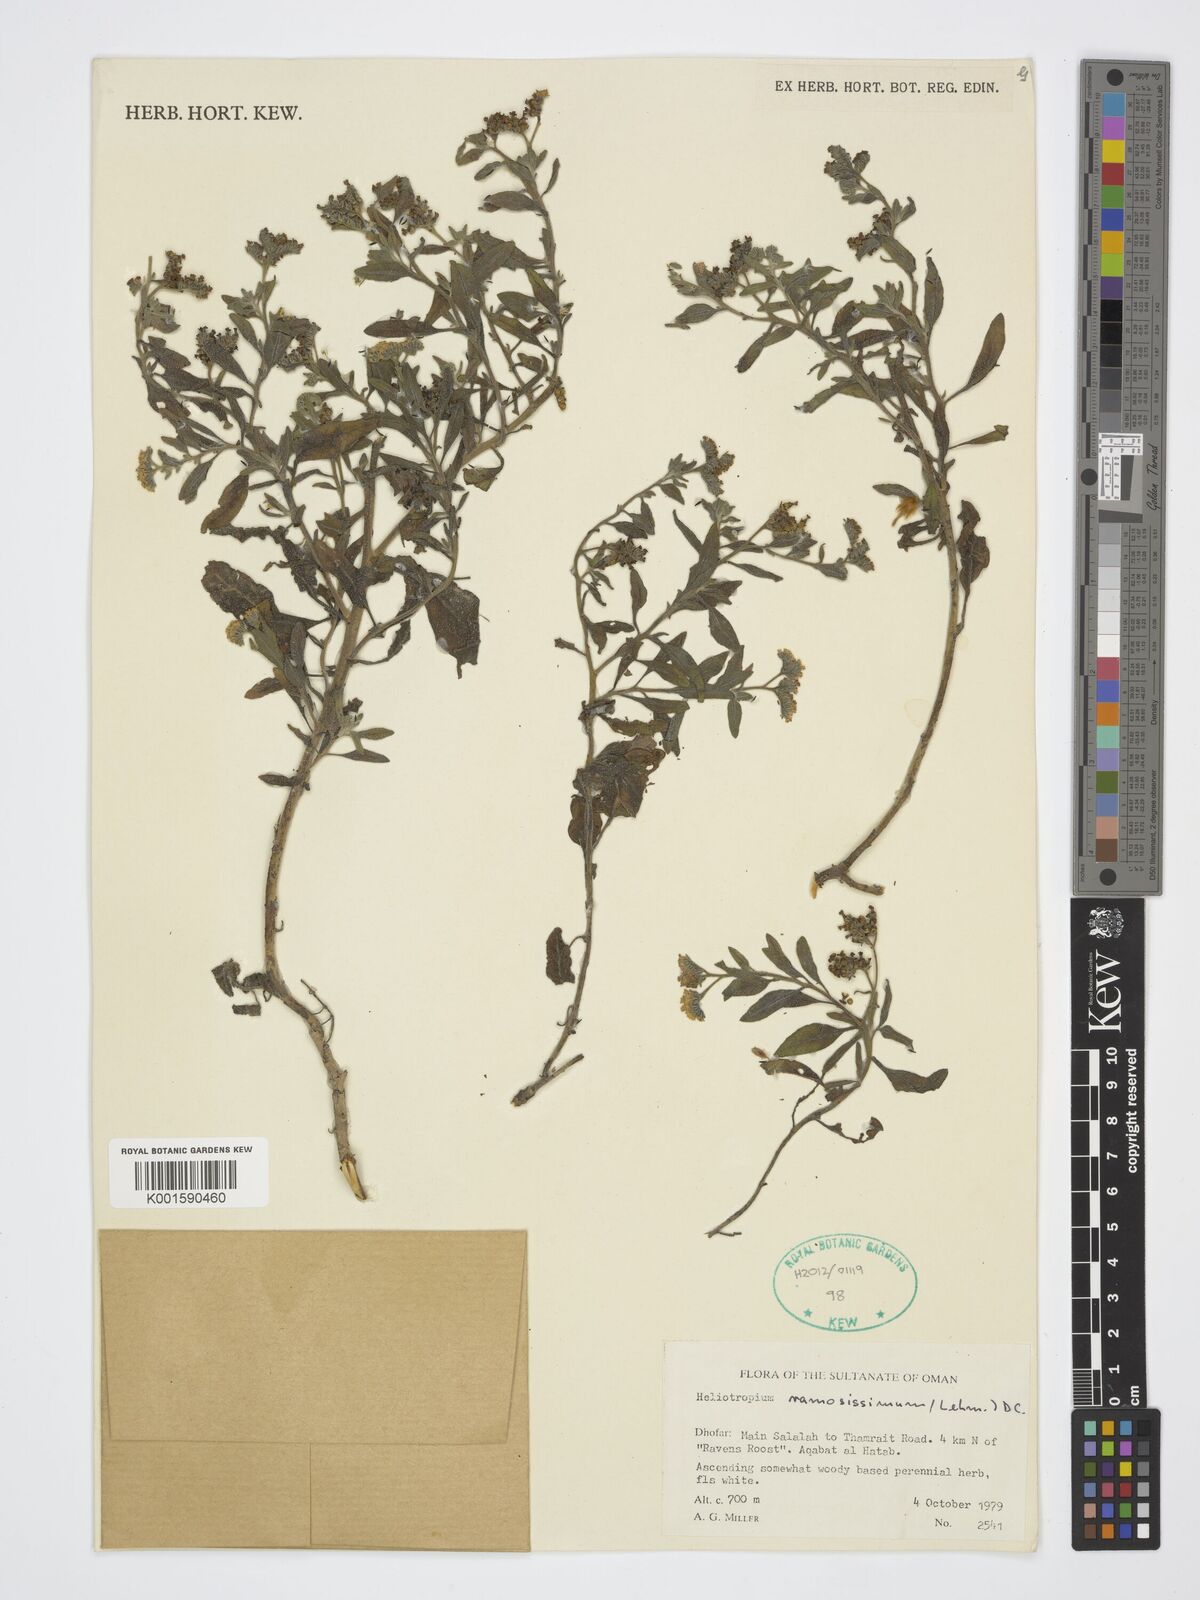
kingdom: Plantae
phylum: Tracheophyta
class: Magnoliopsida
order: Boraginales
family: Heliotropiaceae
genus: Heliotropium
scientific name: Heliotropium ramosissimum
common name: Wavy heliotrope
